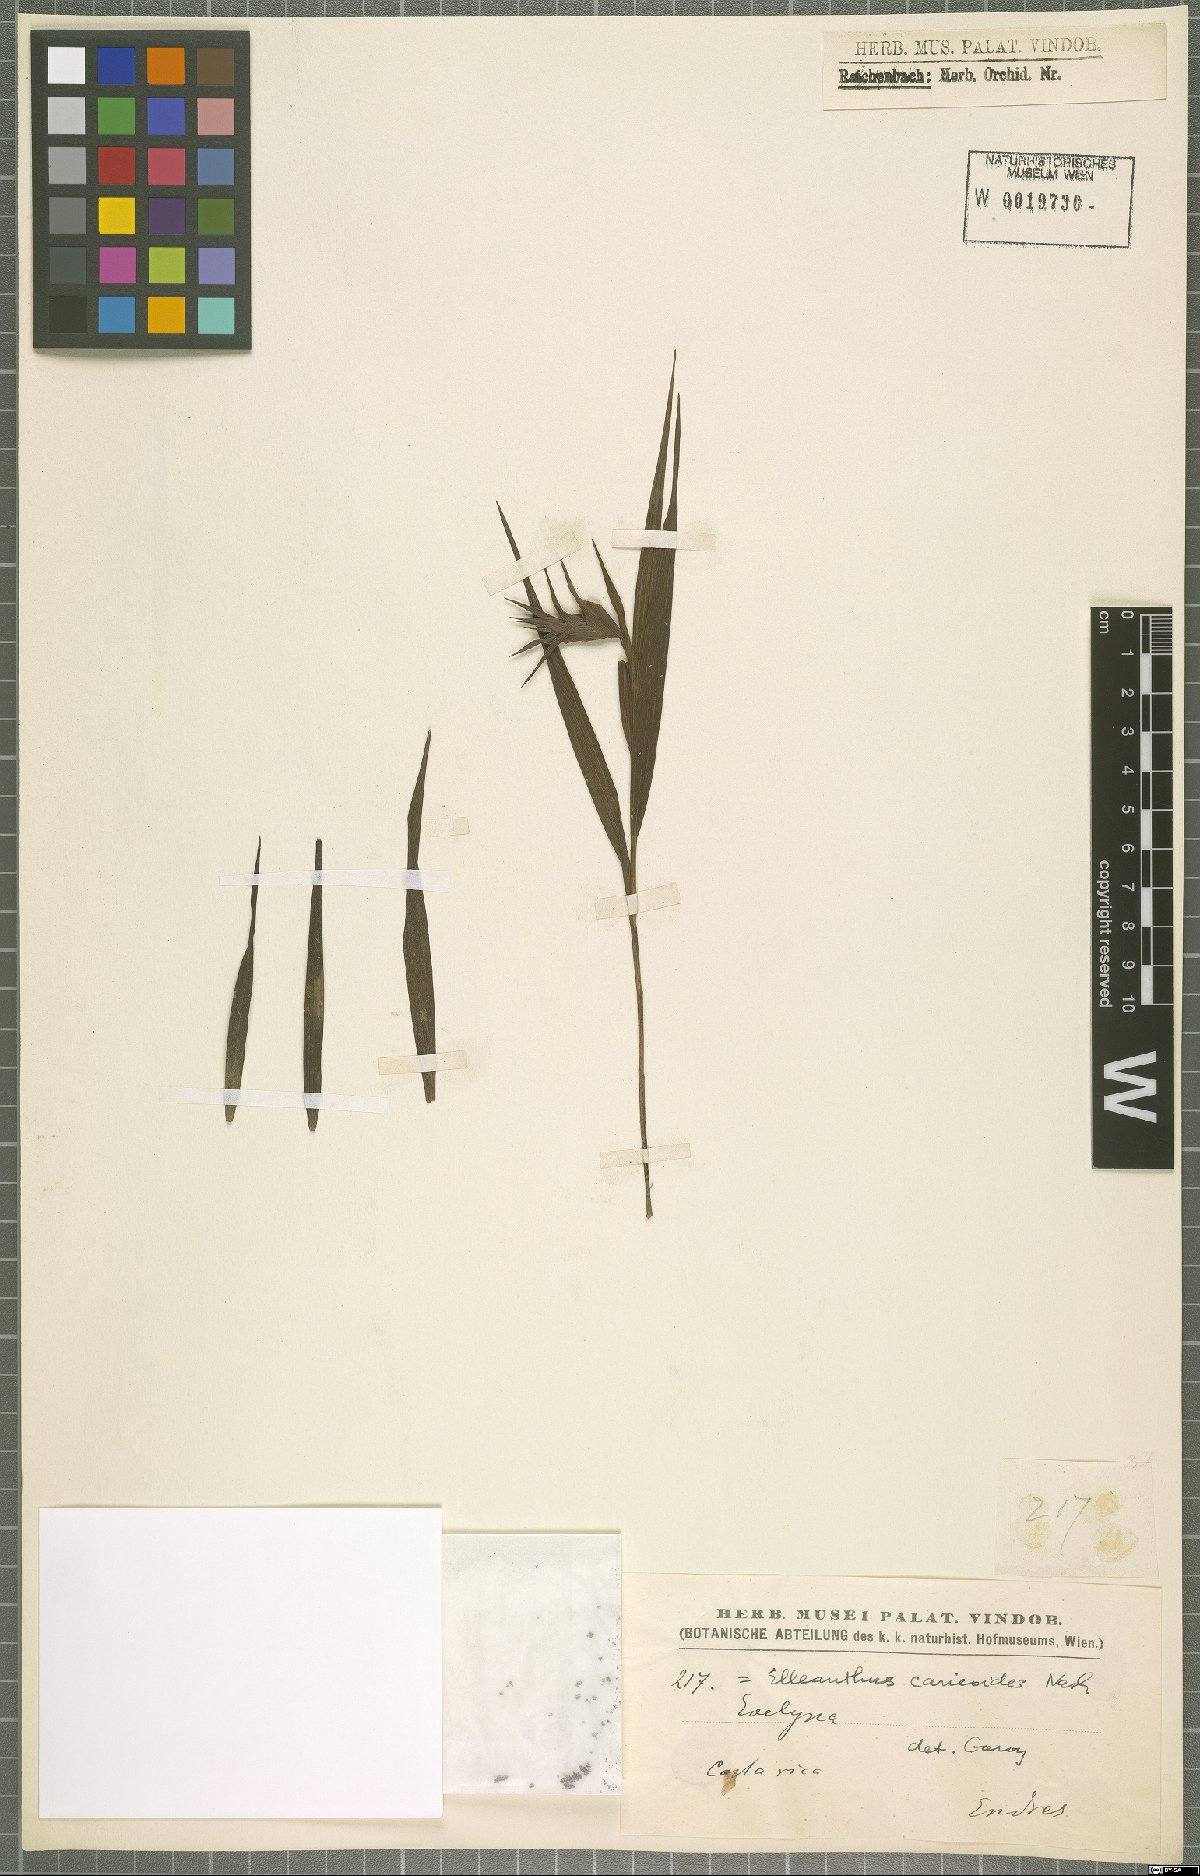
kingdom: Plantae
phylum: Tracheophyta
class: Liliopsida
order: Asparagales
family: Orchidaceae
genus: Elleanthus
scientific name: Elleanthus caricoides
